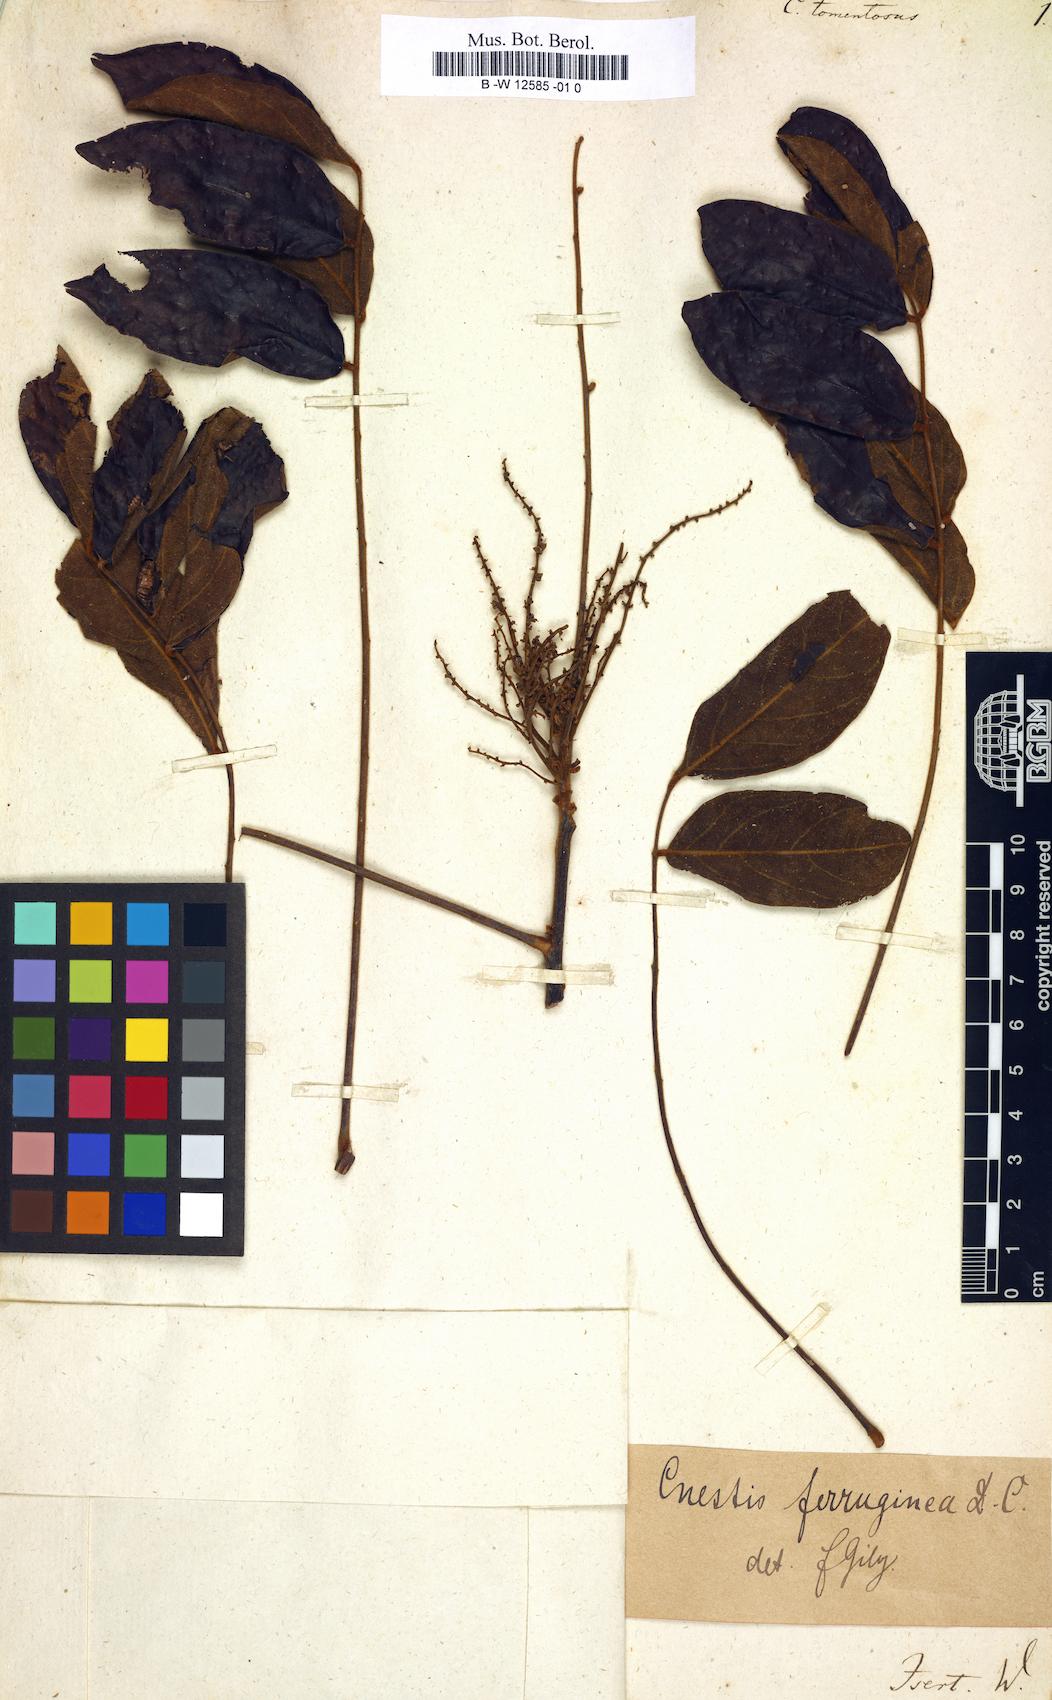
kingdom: Plantae
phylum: Tracheophyta
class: Magnoliopsida
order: Oxalidales
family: Connaraceae
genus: Connarus
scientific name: Connarus tomentosus
